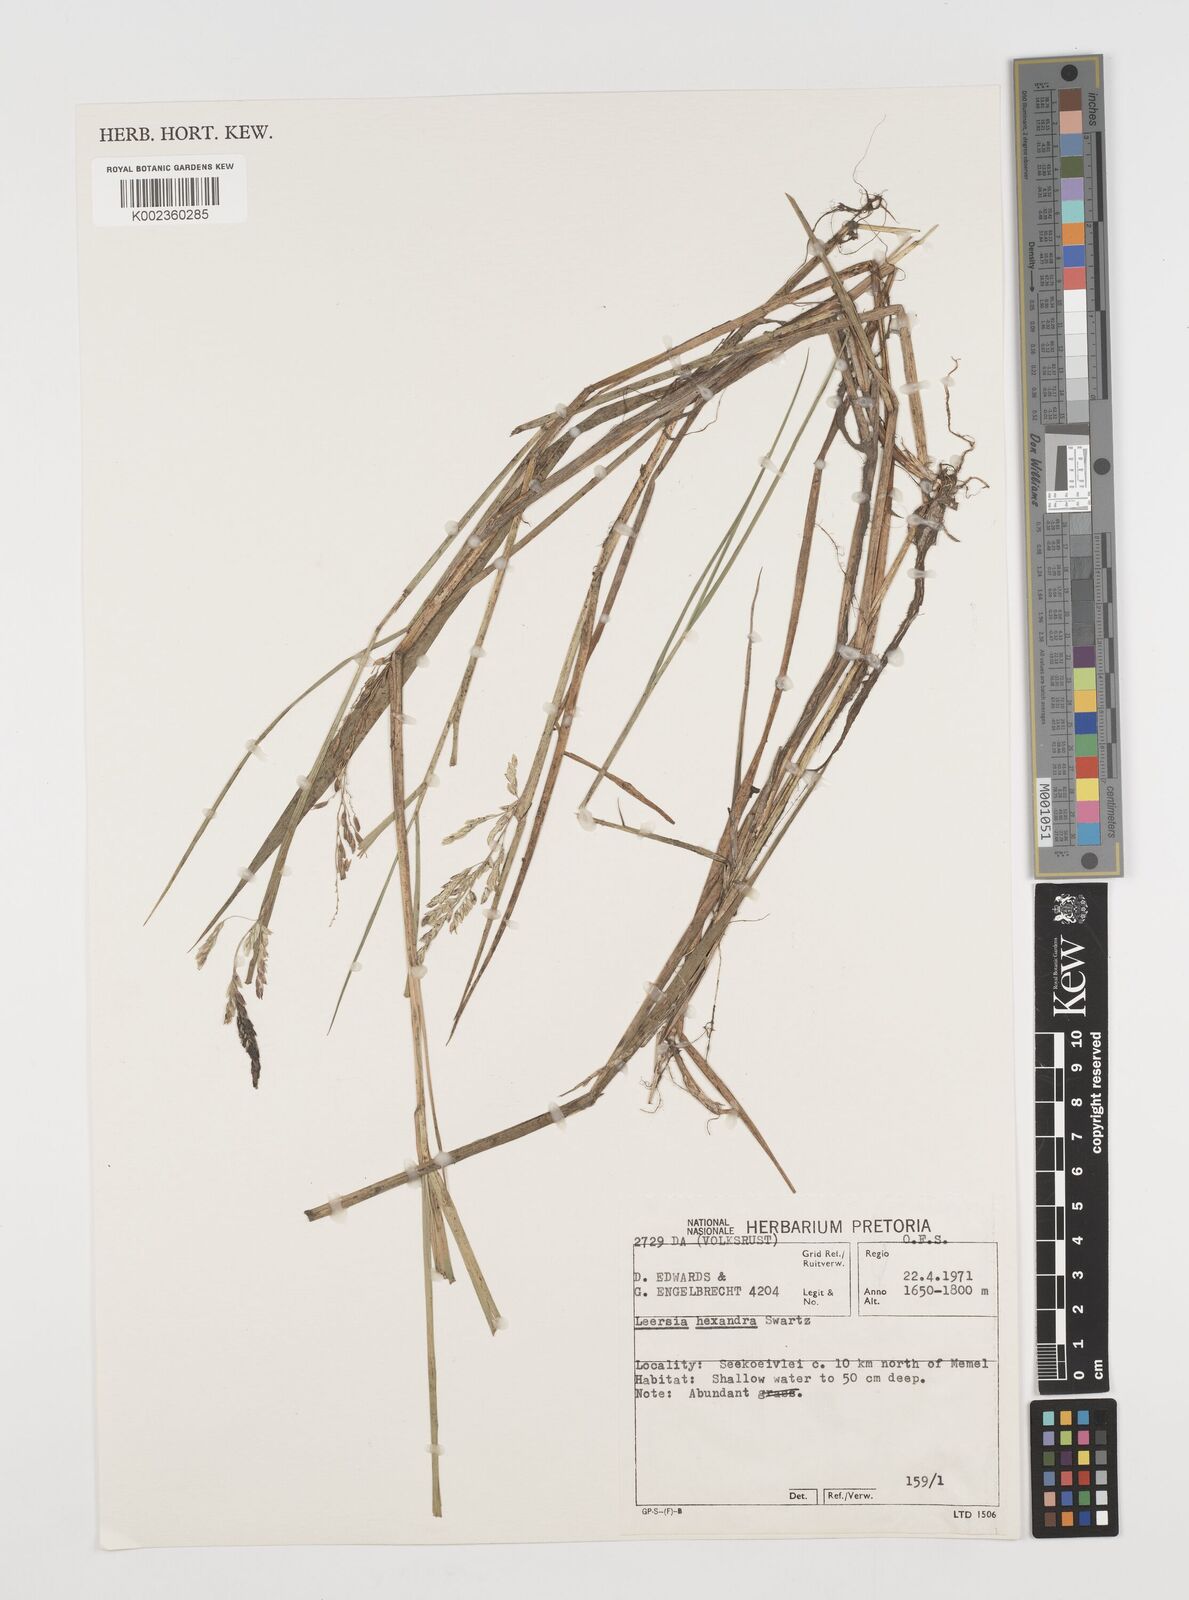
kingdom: Plantae
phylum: Tracheophyta
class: Liliopsida
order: Poales
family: Poaceae
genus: Leersia
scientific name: Leersia hexandra
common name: Southern cut grass
